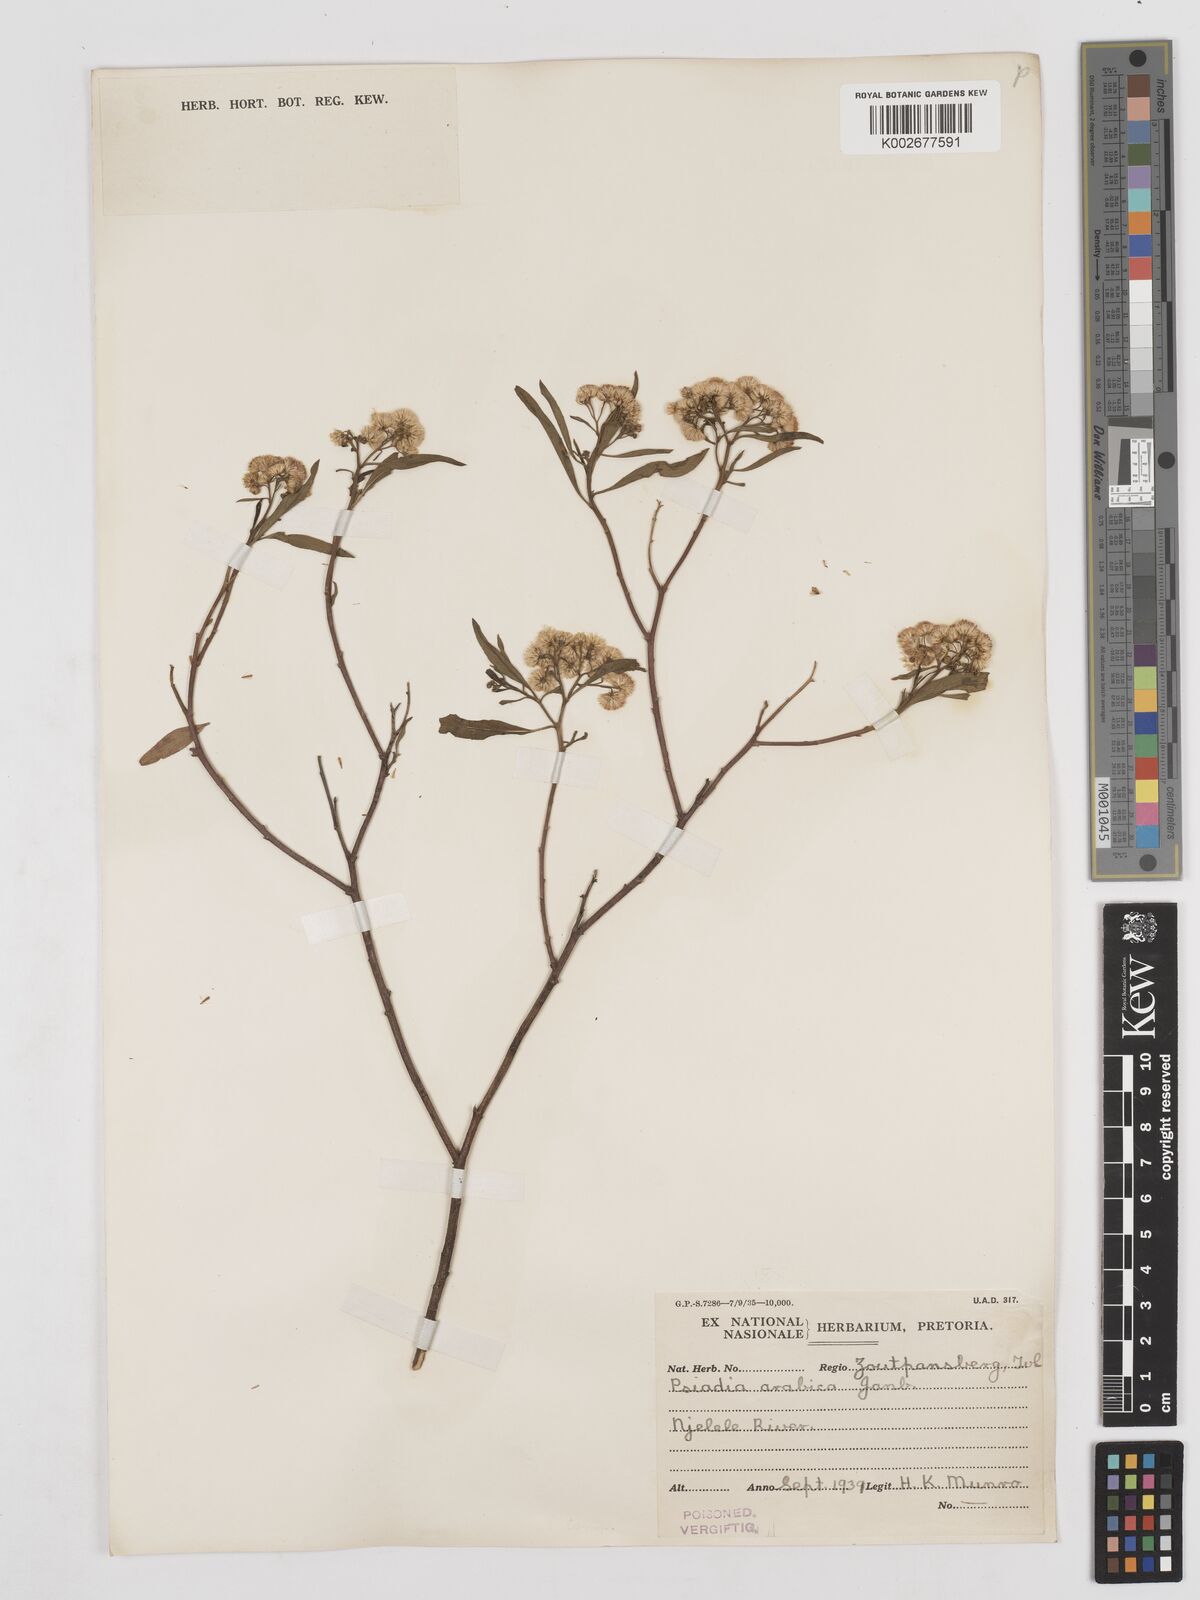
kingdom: Plantae
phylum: Tracheophyta
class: Magnoliopsida
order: Asterales
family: Asteraceae
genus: Psiadia
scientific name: Psiadia punctulata
